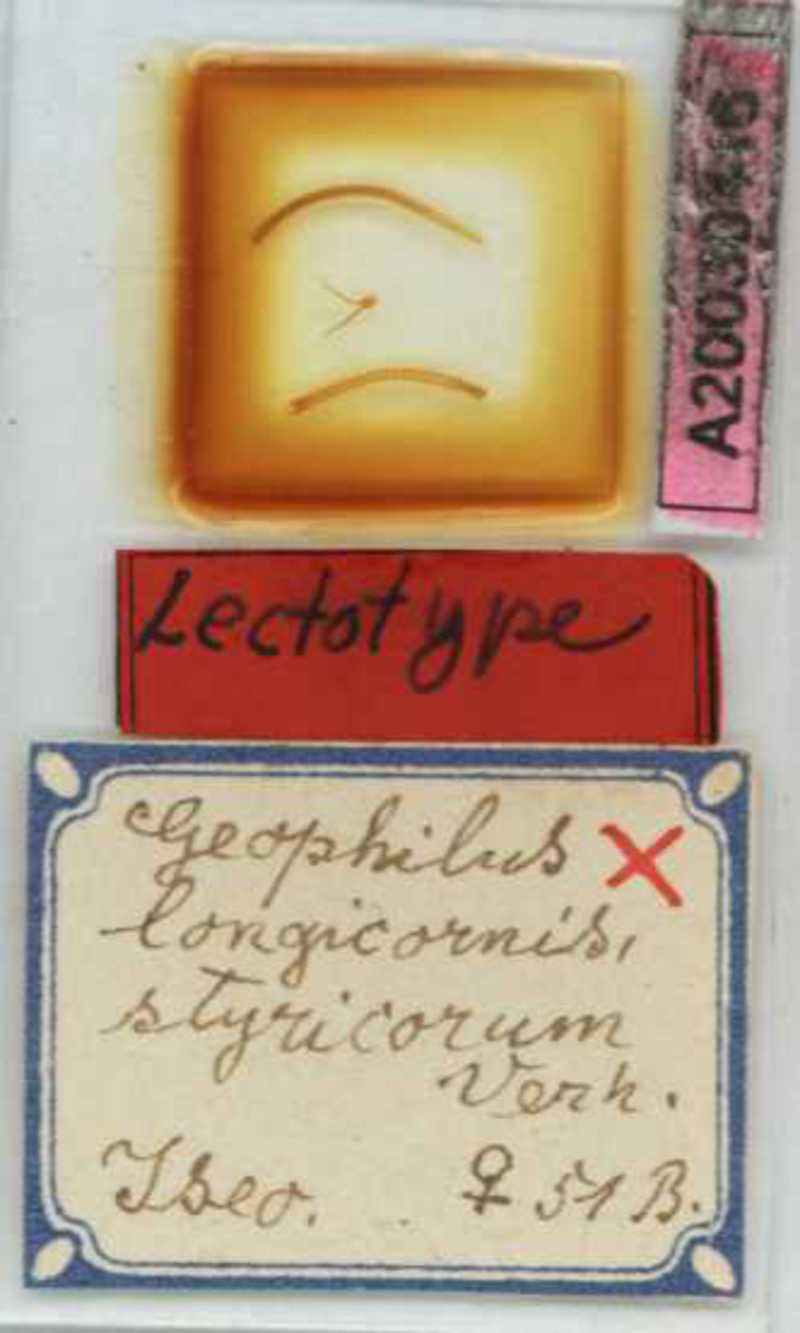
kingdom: Animalia
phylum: Arthropoda
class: Chilopoda
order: Geophilomorpha
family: Geophilidae
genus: Geophilus
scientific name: Geophilus flavus
